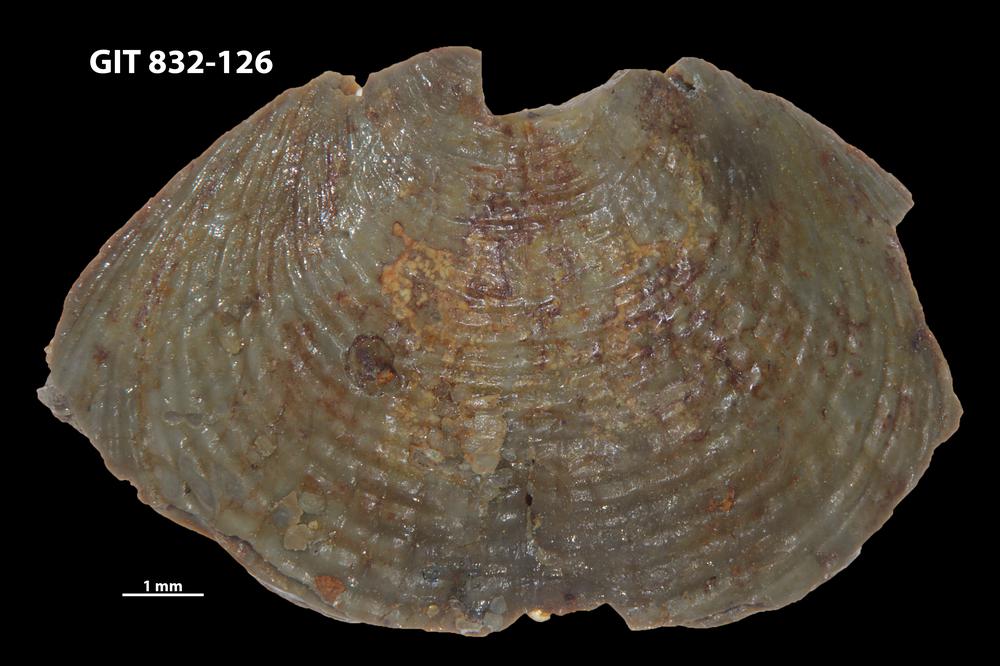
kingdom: Animalia
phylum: Brachiopoda
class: Lingulata
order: Lingulida
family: Obolidae
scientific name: Obolidae
